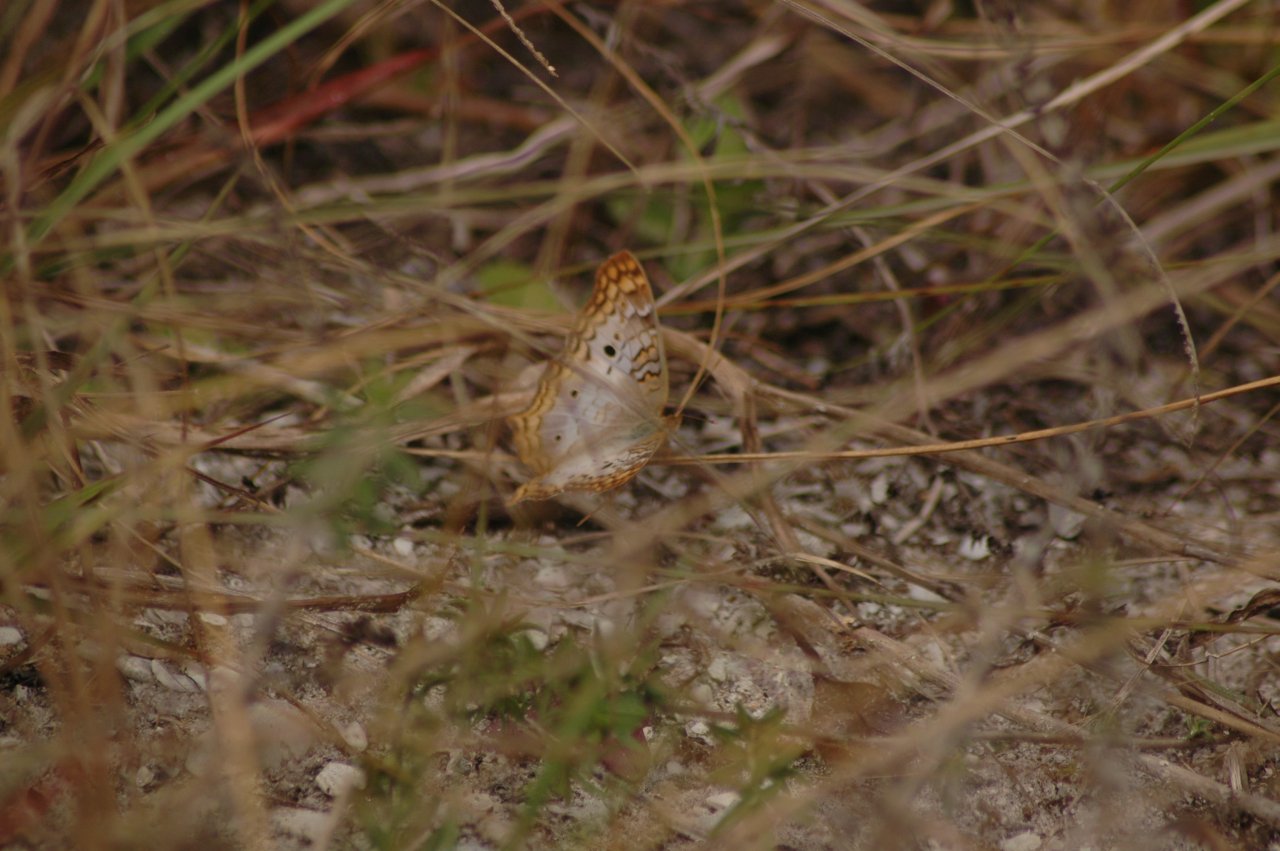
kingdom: Animalia
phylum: Arthropoda
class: Insecta
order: Lepidoptera
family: Nymphalidae
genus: Anartia
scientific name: Anartia jatrophae
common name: White Peacock
